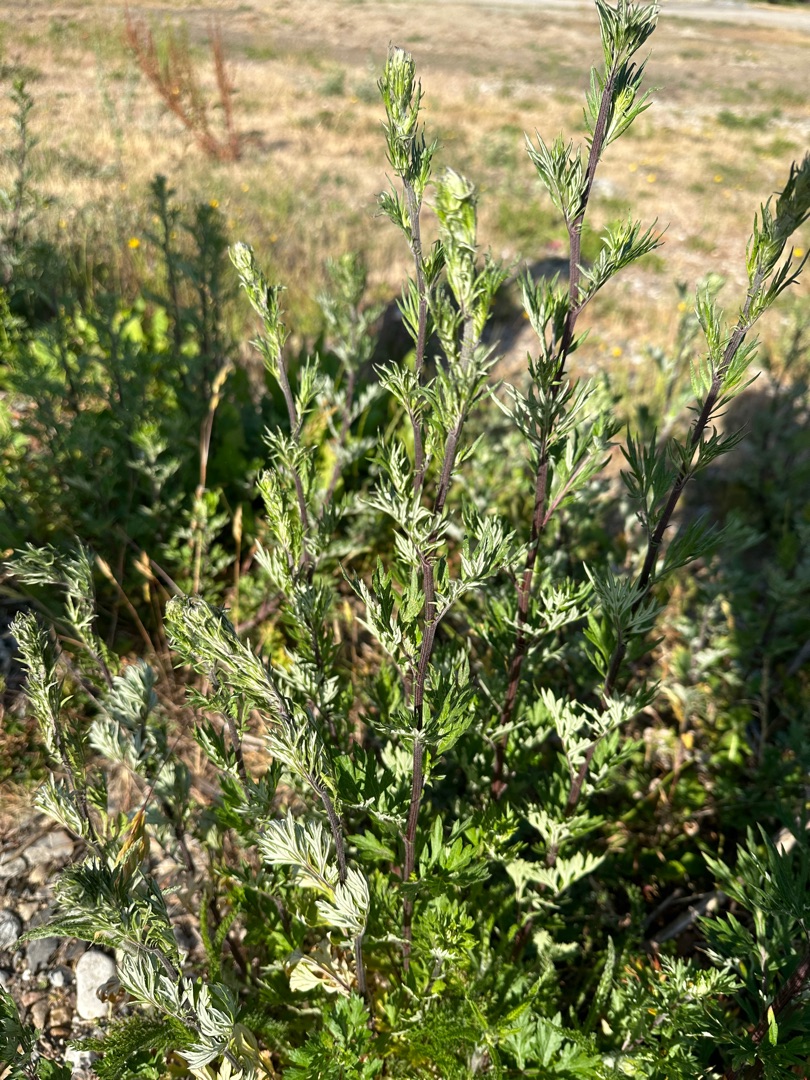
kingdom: Plantae
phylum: Tracheophyta
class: Magnoliopsida
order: Asterales
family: Asteraceae
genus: Artemisia
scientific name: Artemisia vulgaris
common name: Grå-bynke
